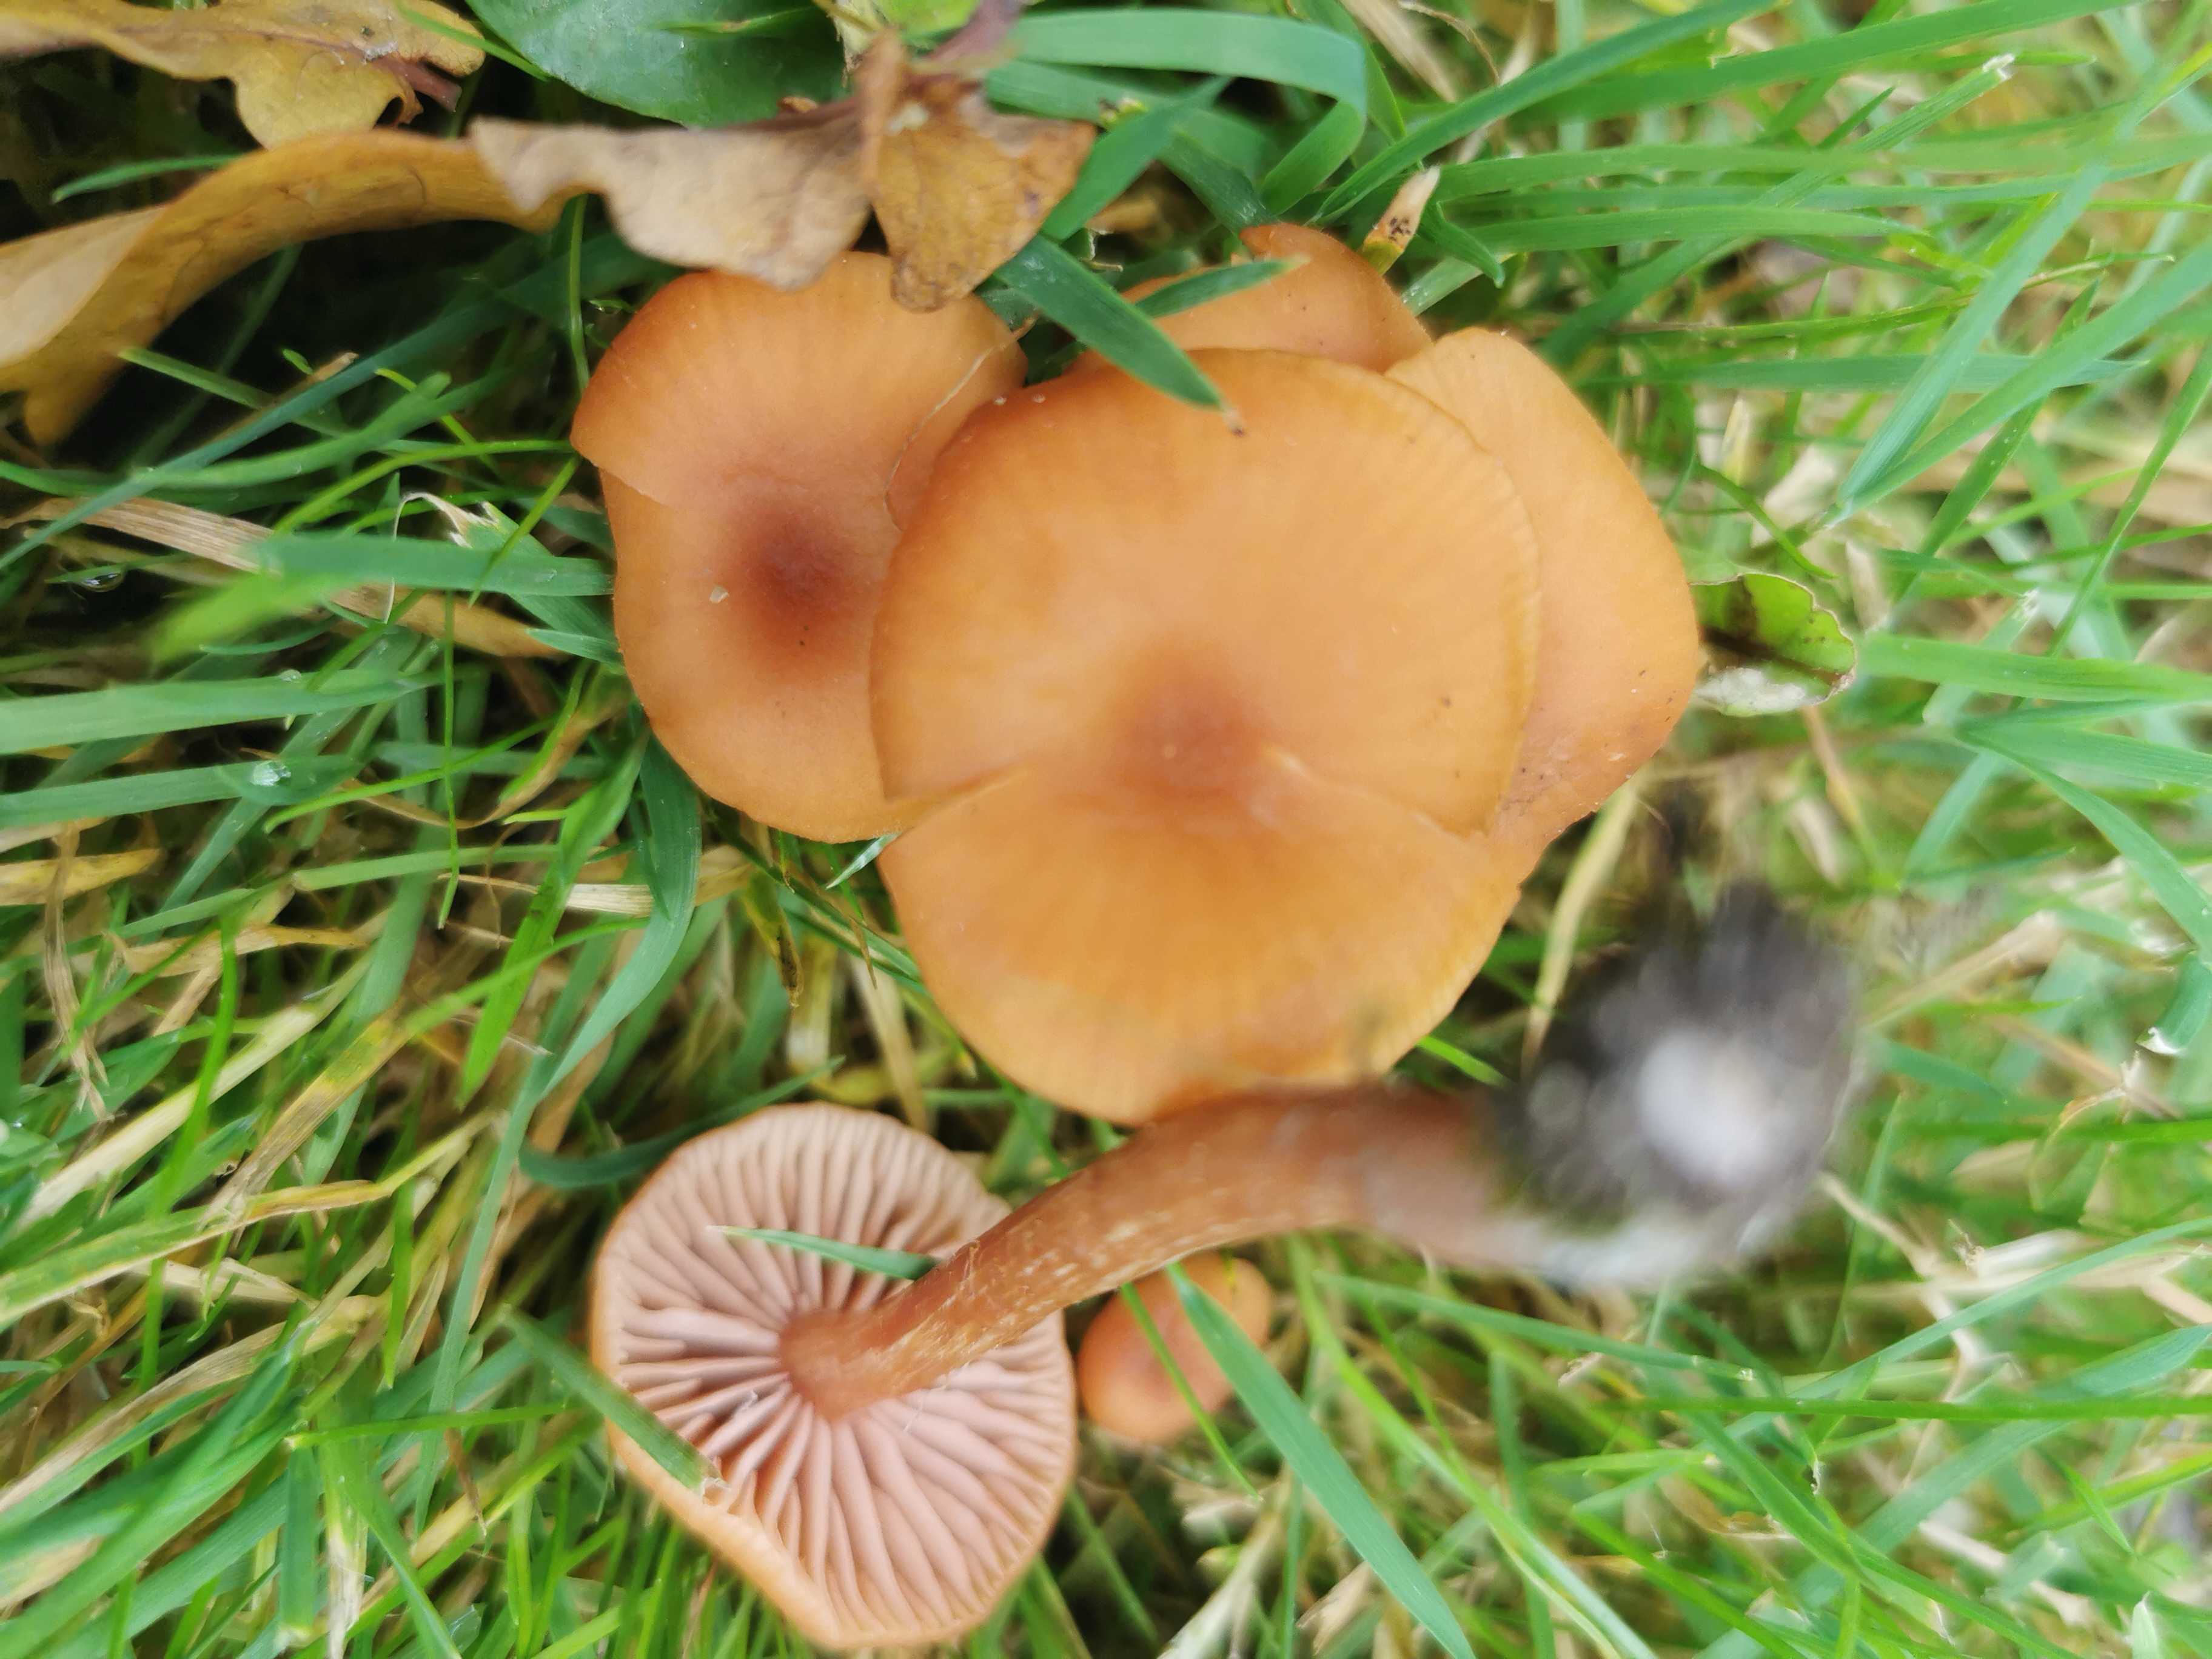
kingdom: Fungi
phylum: Basidiomycota
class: Agaricomycetes
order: Agaricales
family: Hydnangiaceae
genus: Laccaria
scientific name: Laccaria laccata
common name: rød ametysthat
